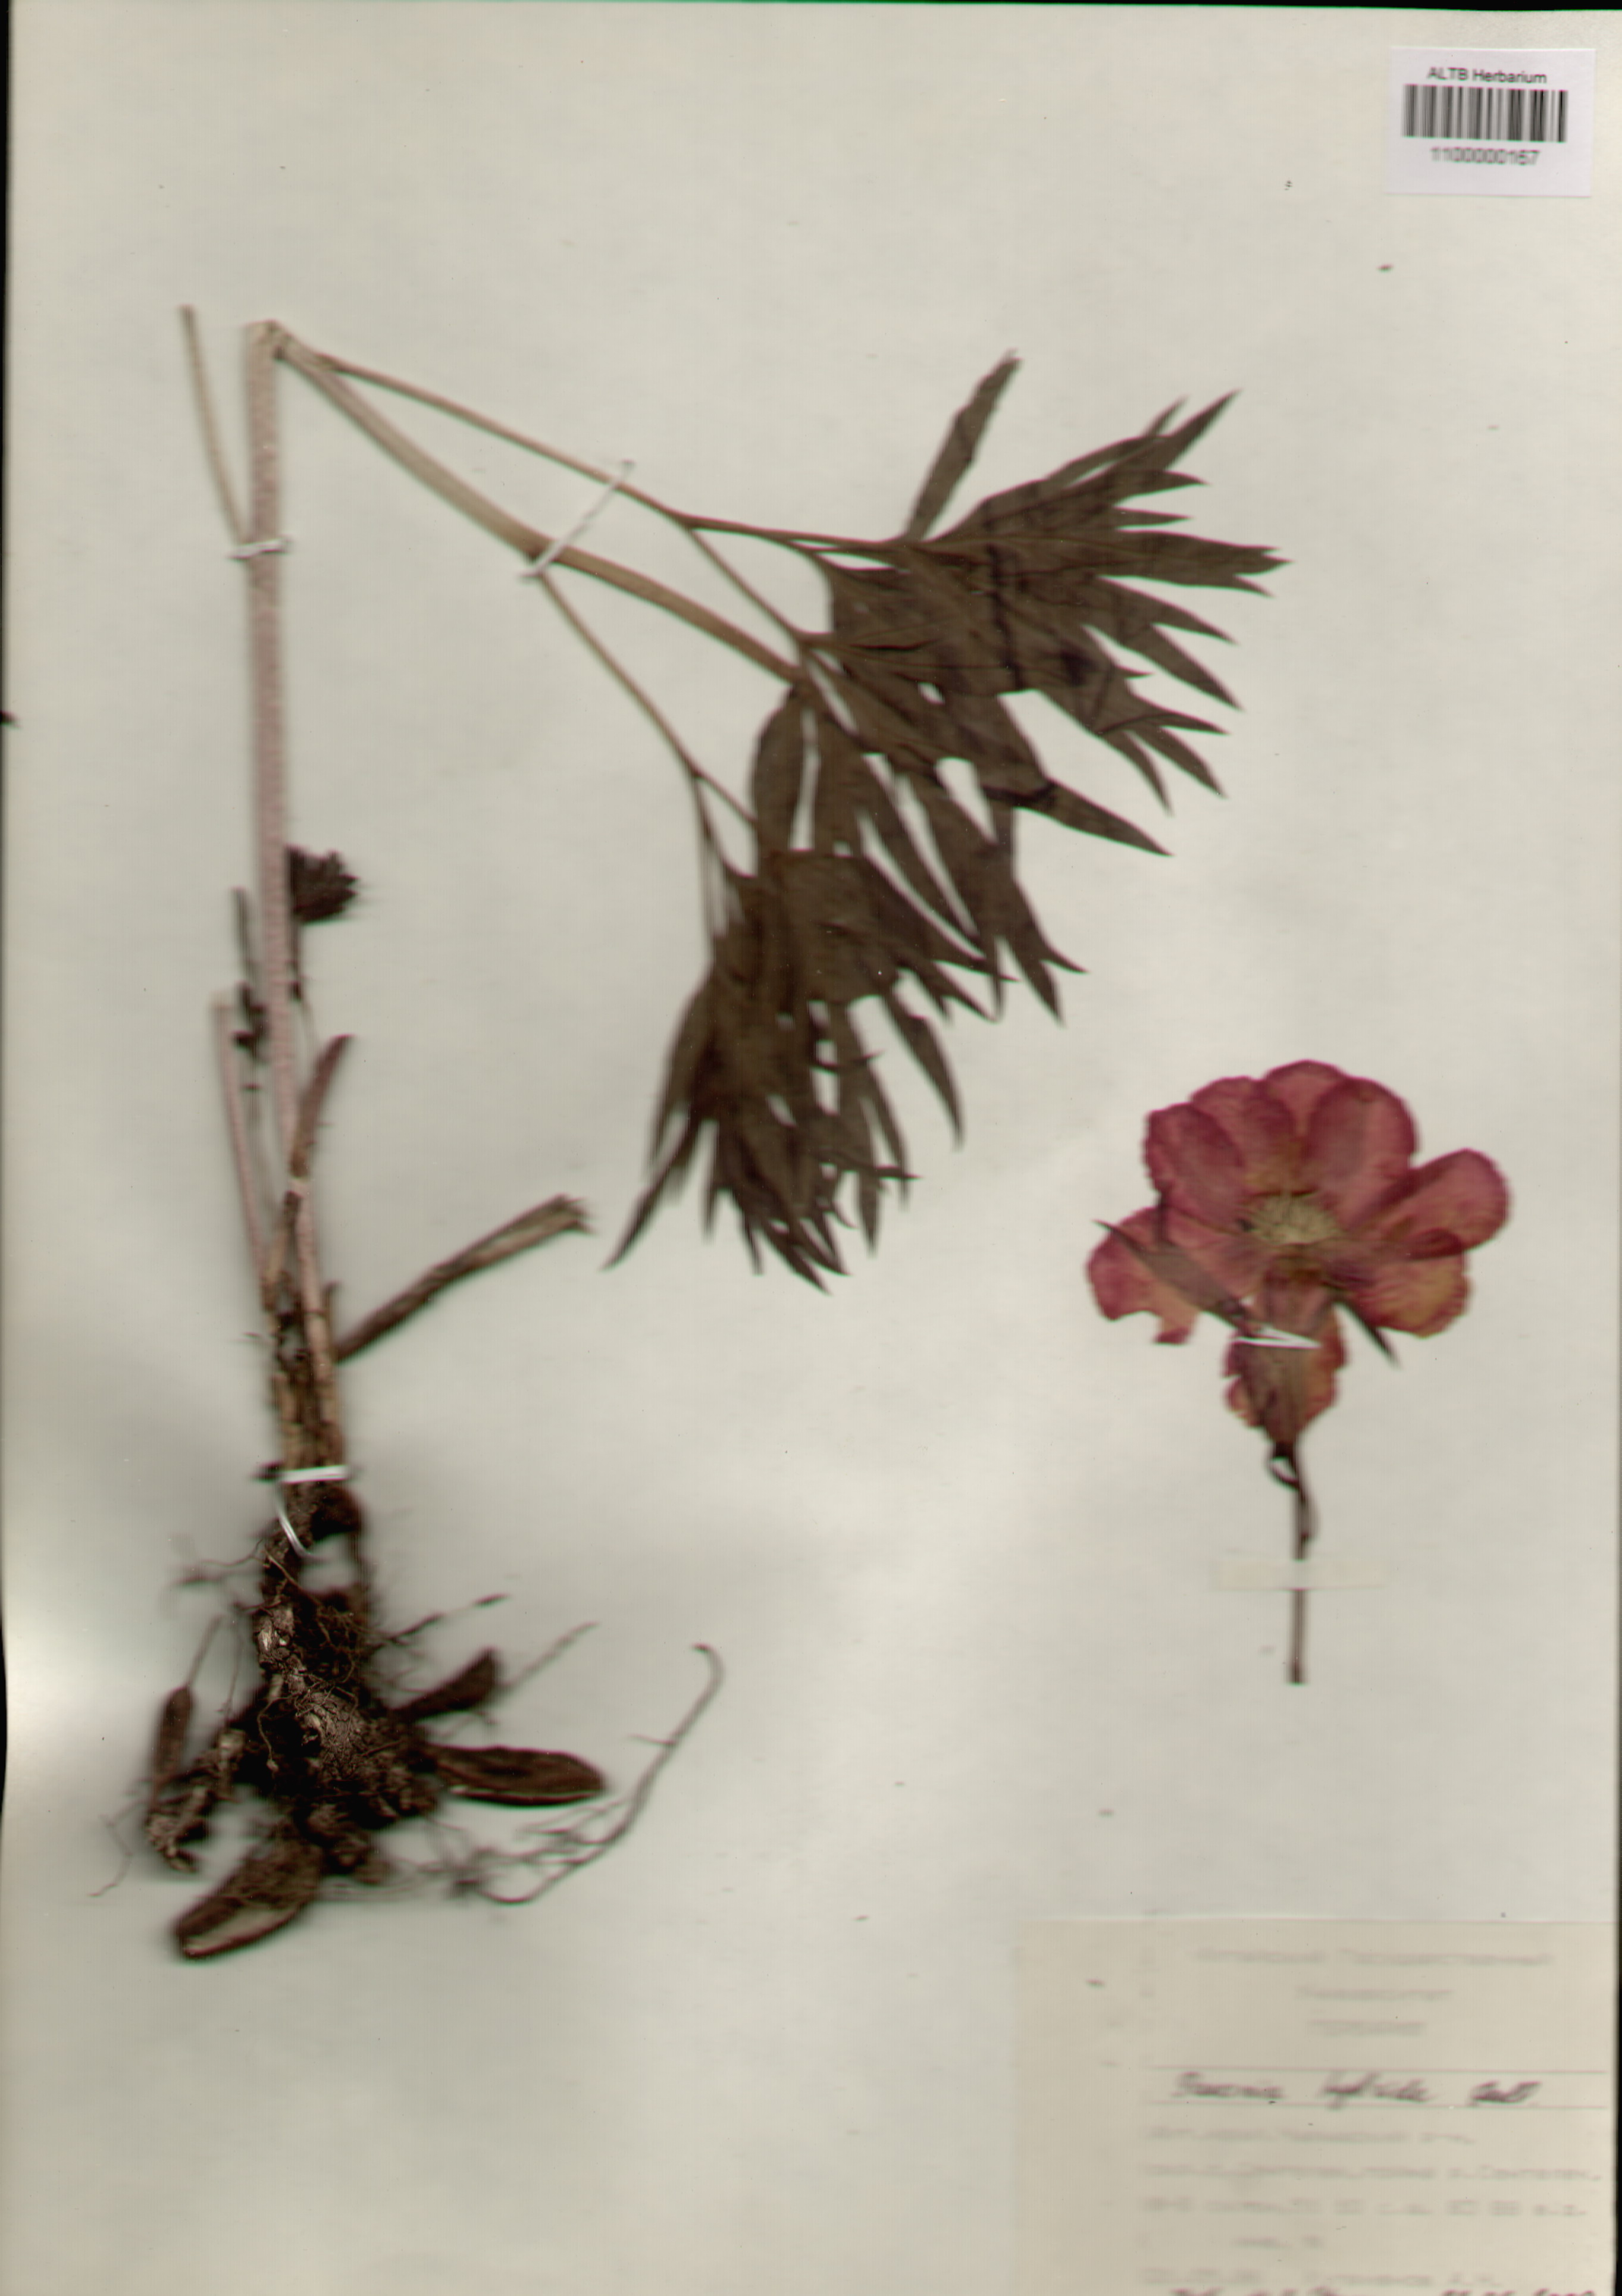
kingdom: Plantae
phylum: Tracheophyta
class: Magnoliopsida
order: Saxifragales
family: Paeoniaceae
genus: Paeonia
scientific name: Paeonia
